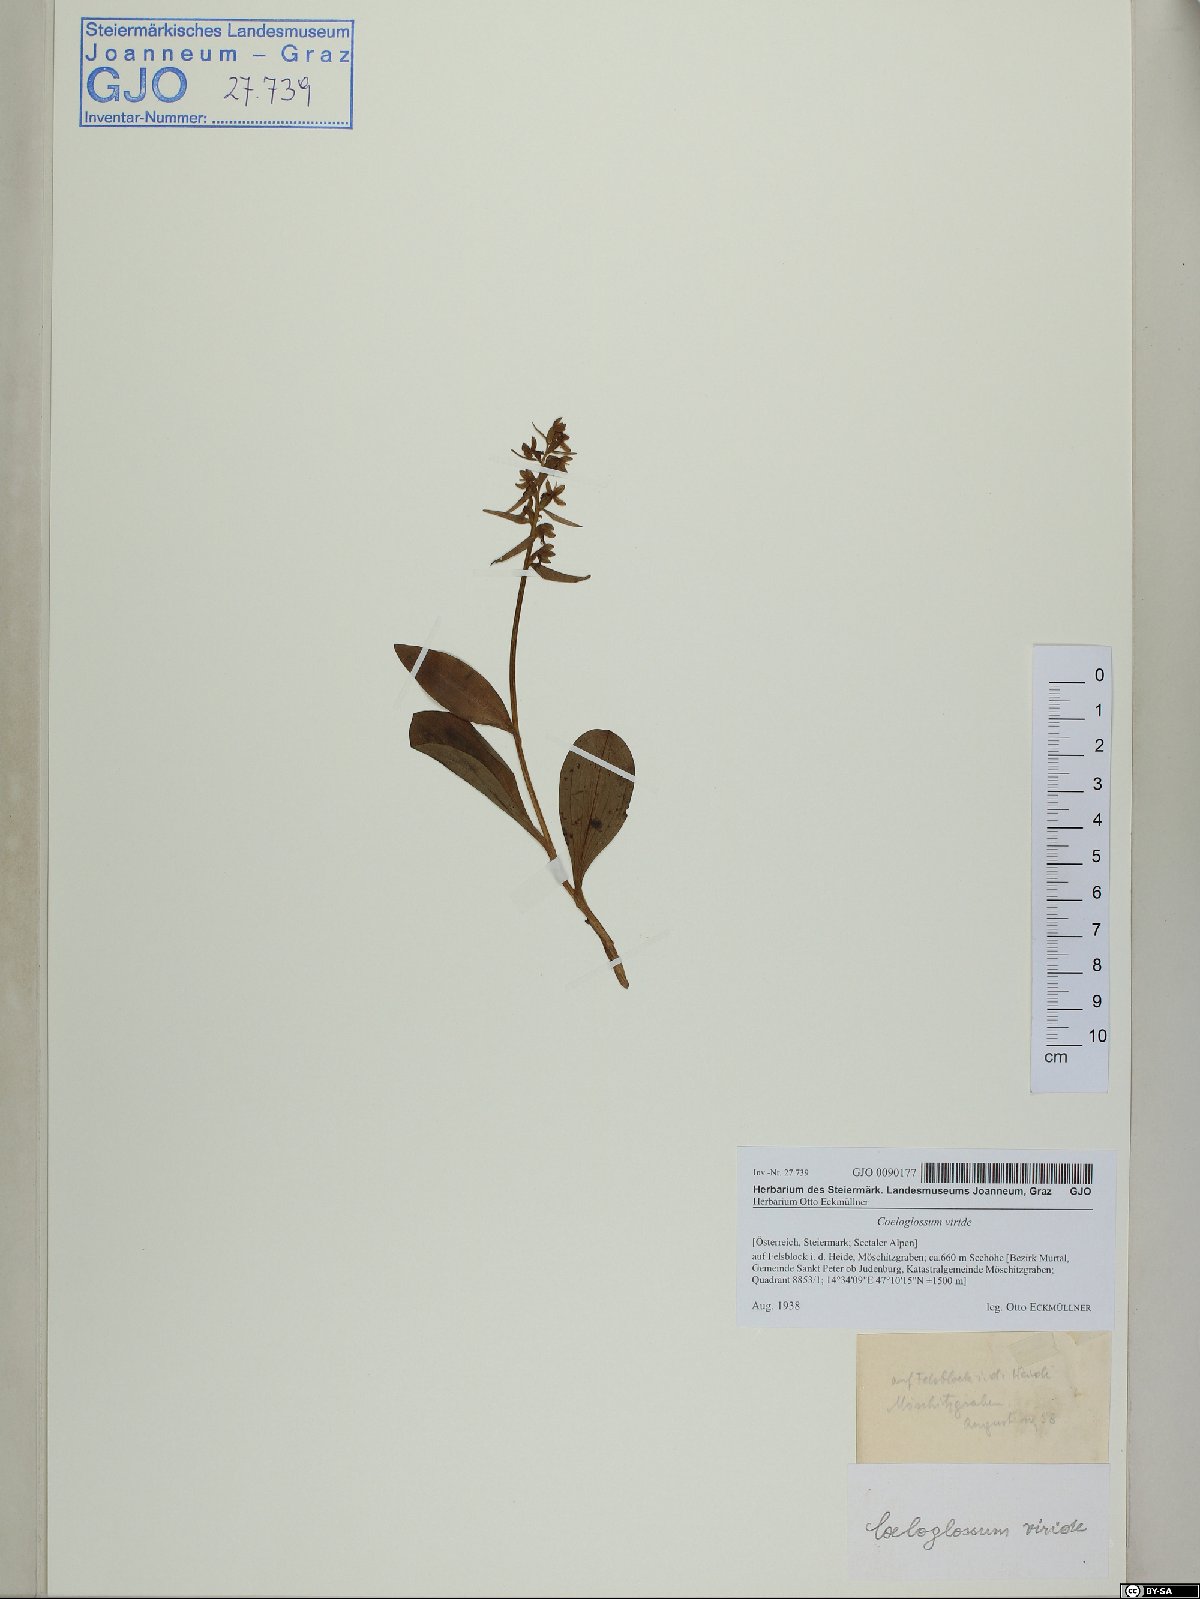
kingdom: Plantae
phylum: Tracheophyta
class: Liliopsida
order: Asparagales
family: Orchidaceae
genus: Dactylorhiza
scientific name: Dactylorhiza viridis
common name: Longbract frog orchid
